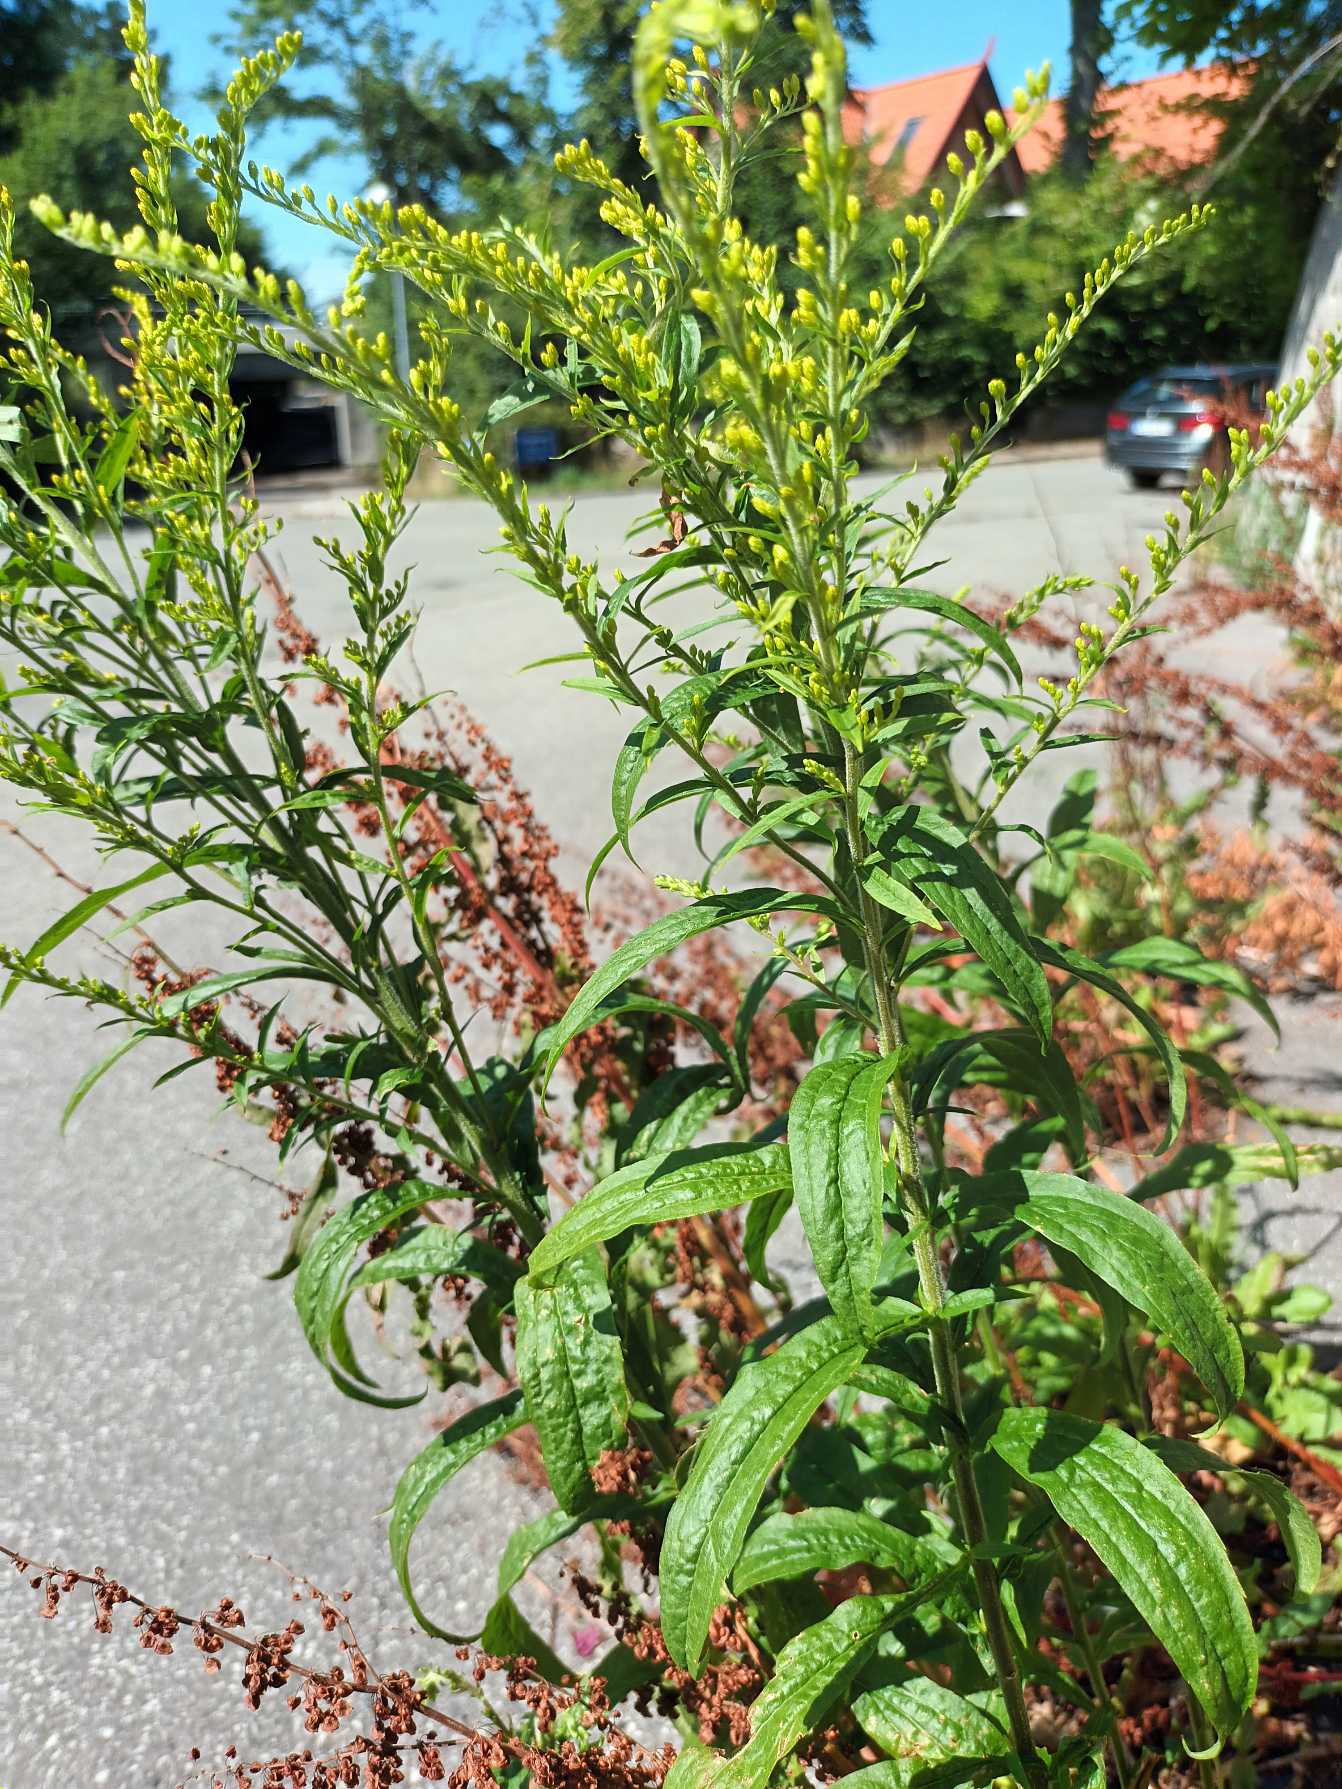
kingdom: Plantae
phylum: Tracheophyta
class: Magnoliopsida
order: Asterales
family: Asteraceae
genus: Solidago
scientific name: Solidago canadensis
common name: Kanadisk gyldenris
